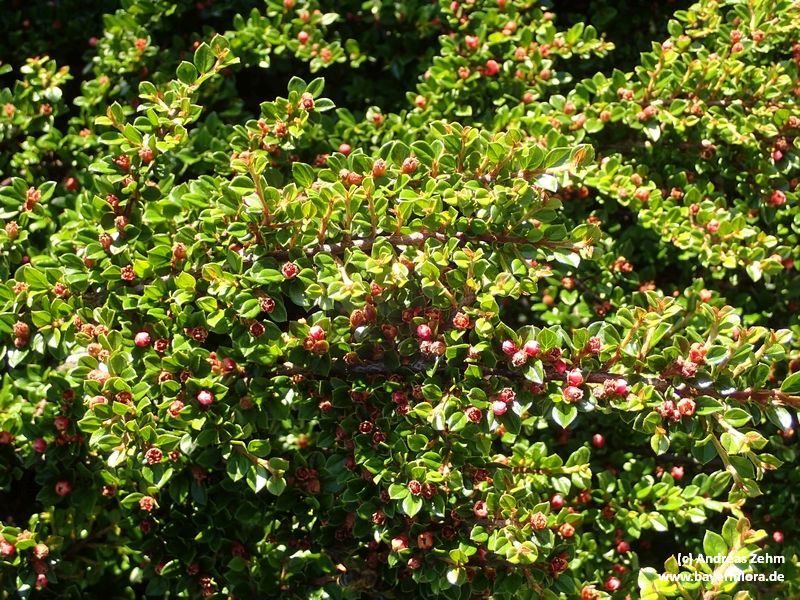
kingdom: Plantae
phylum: Tracheophyta
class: Magnoliopsida
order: Rosales
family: Rosaceae
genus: Cotoneaster
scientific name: Cotoneaster horizontalis
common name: Wall cotoneaster
